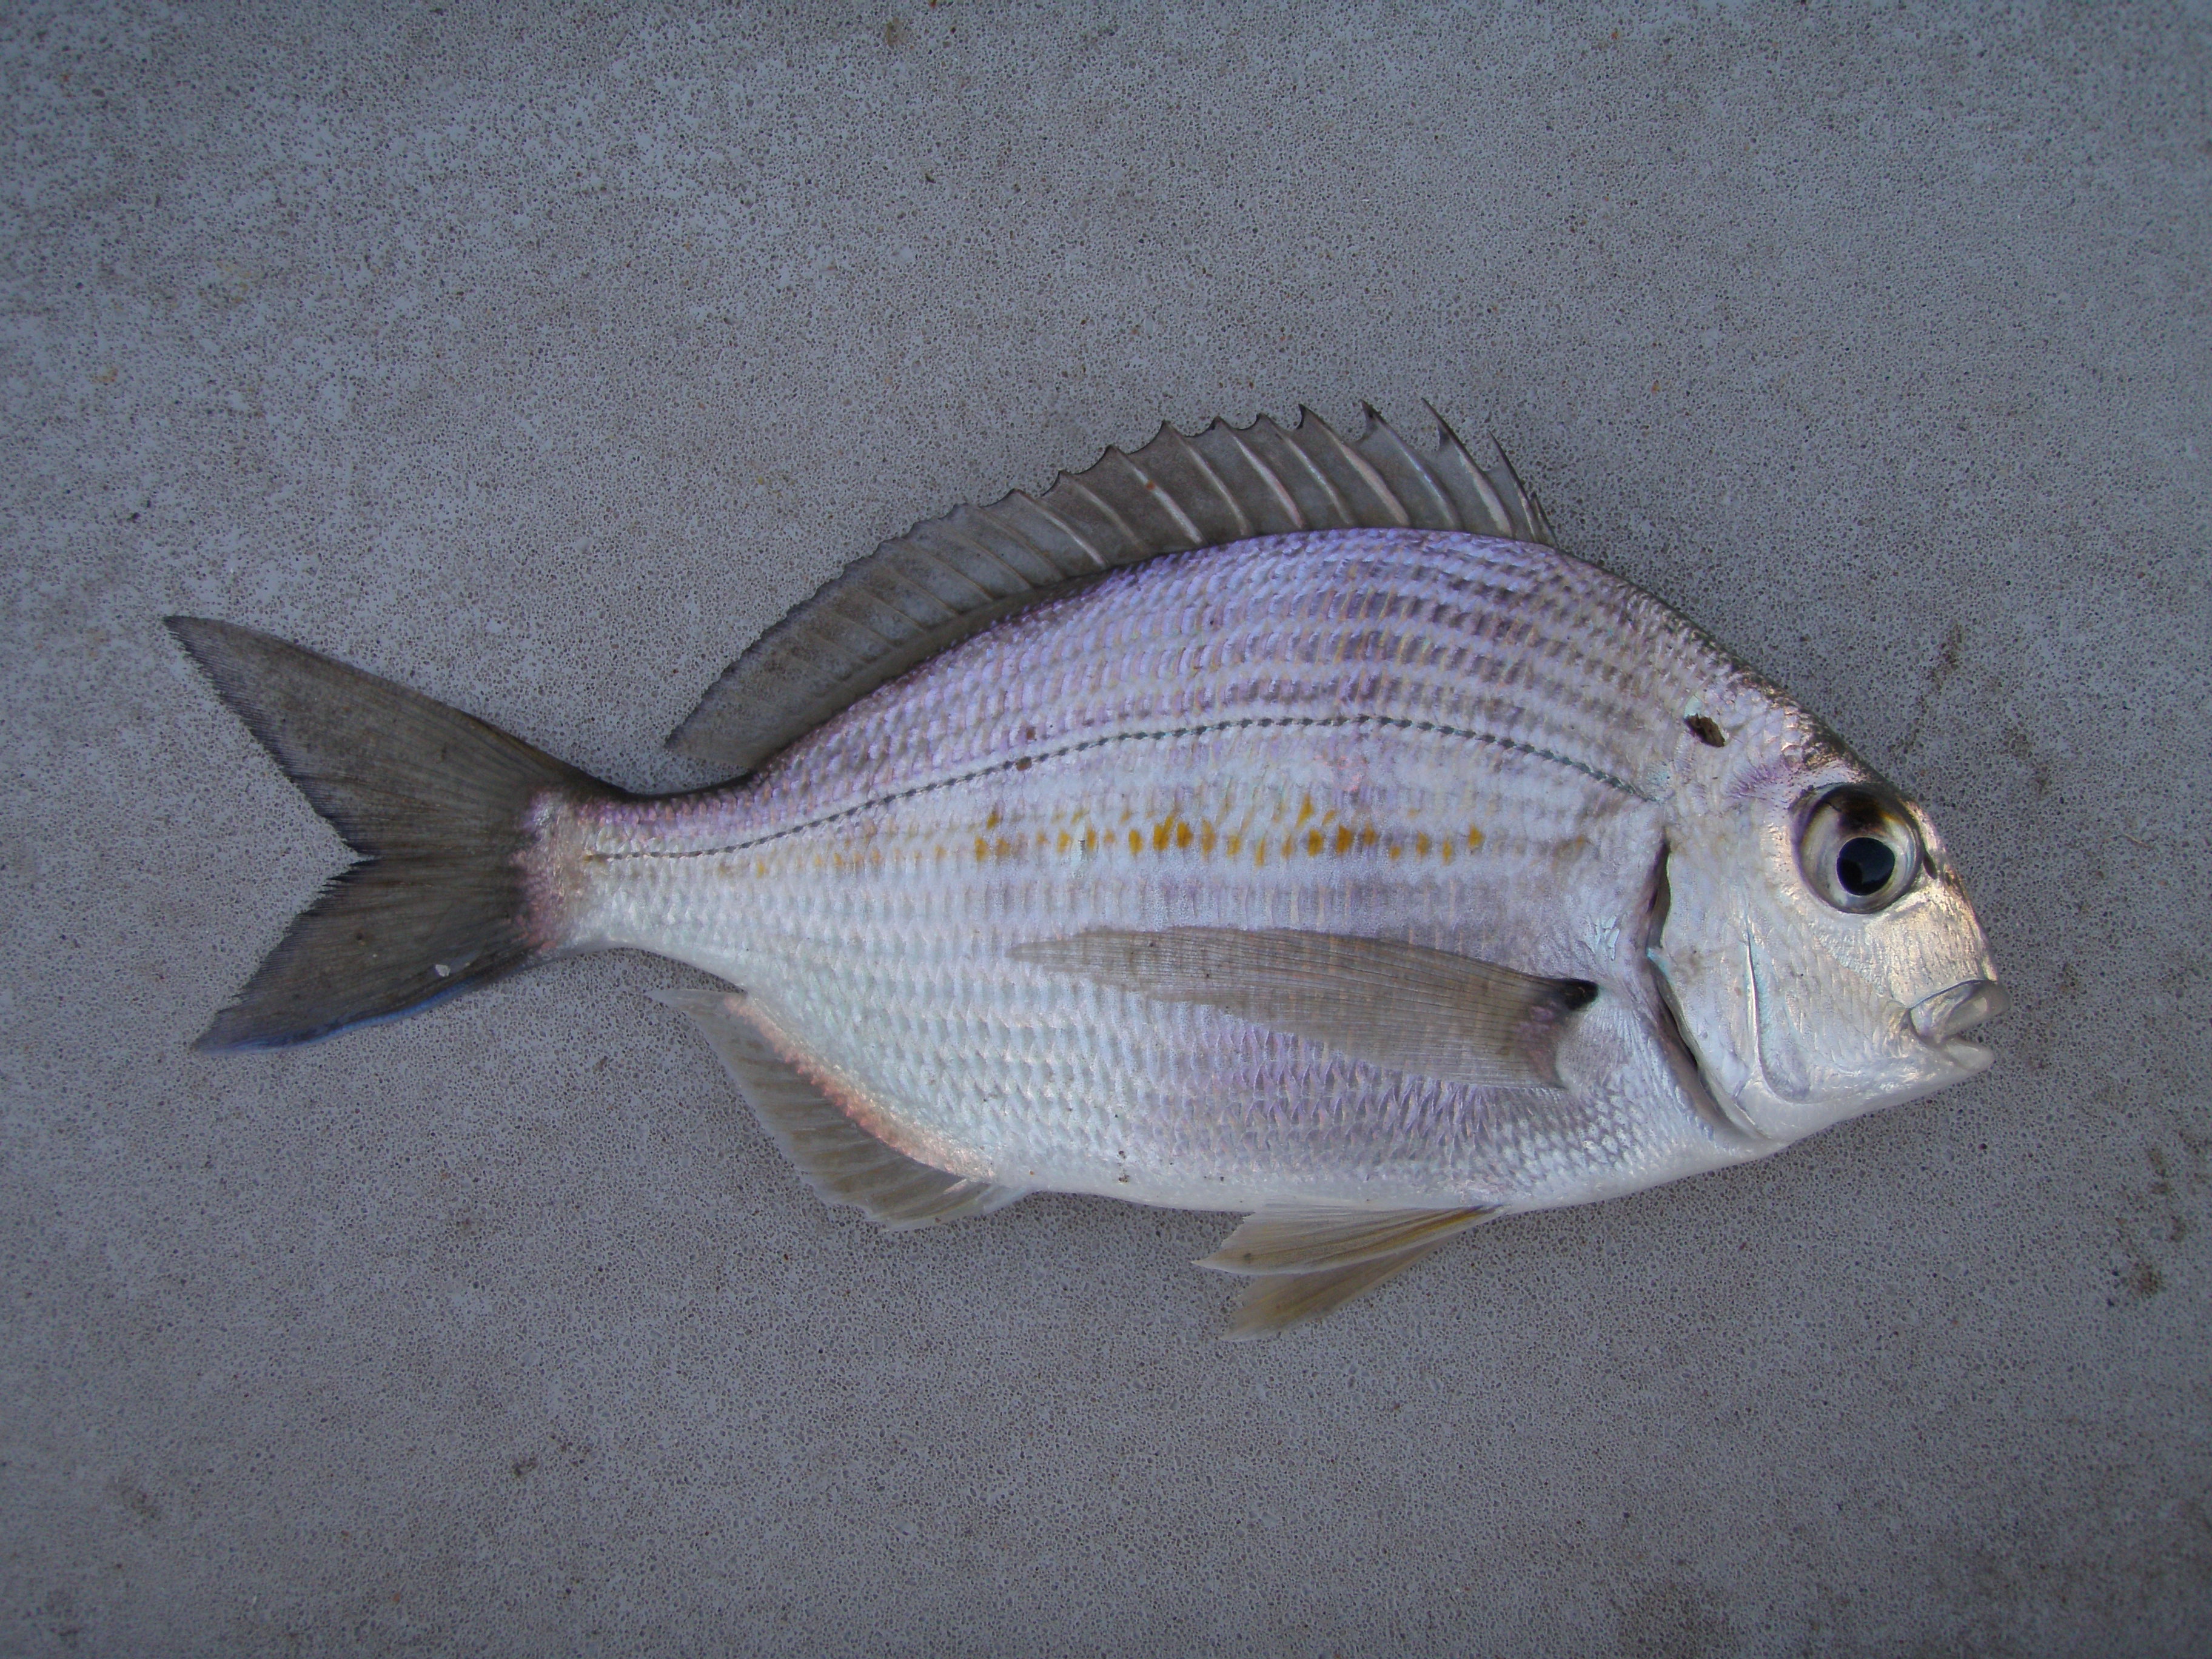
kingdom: Animalia
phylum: Chordata
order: Perciformes
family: Sparidae
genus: Rhabdosargus
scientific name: Rhabdosargus holubi
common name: Cape stumpnose
